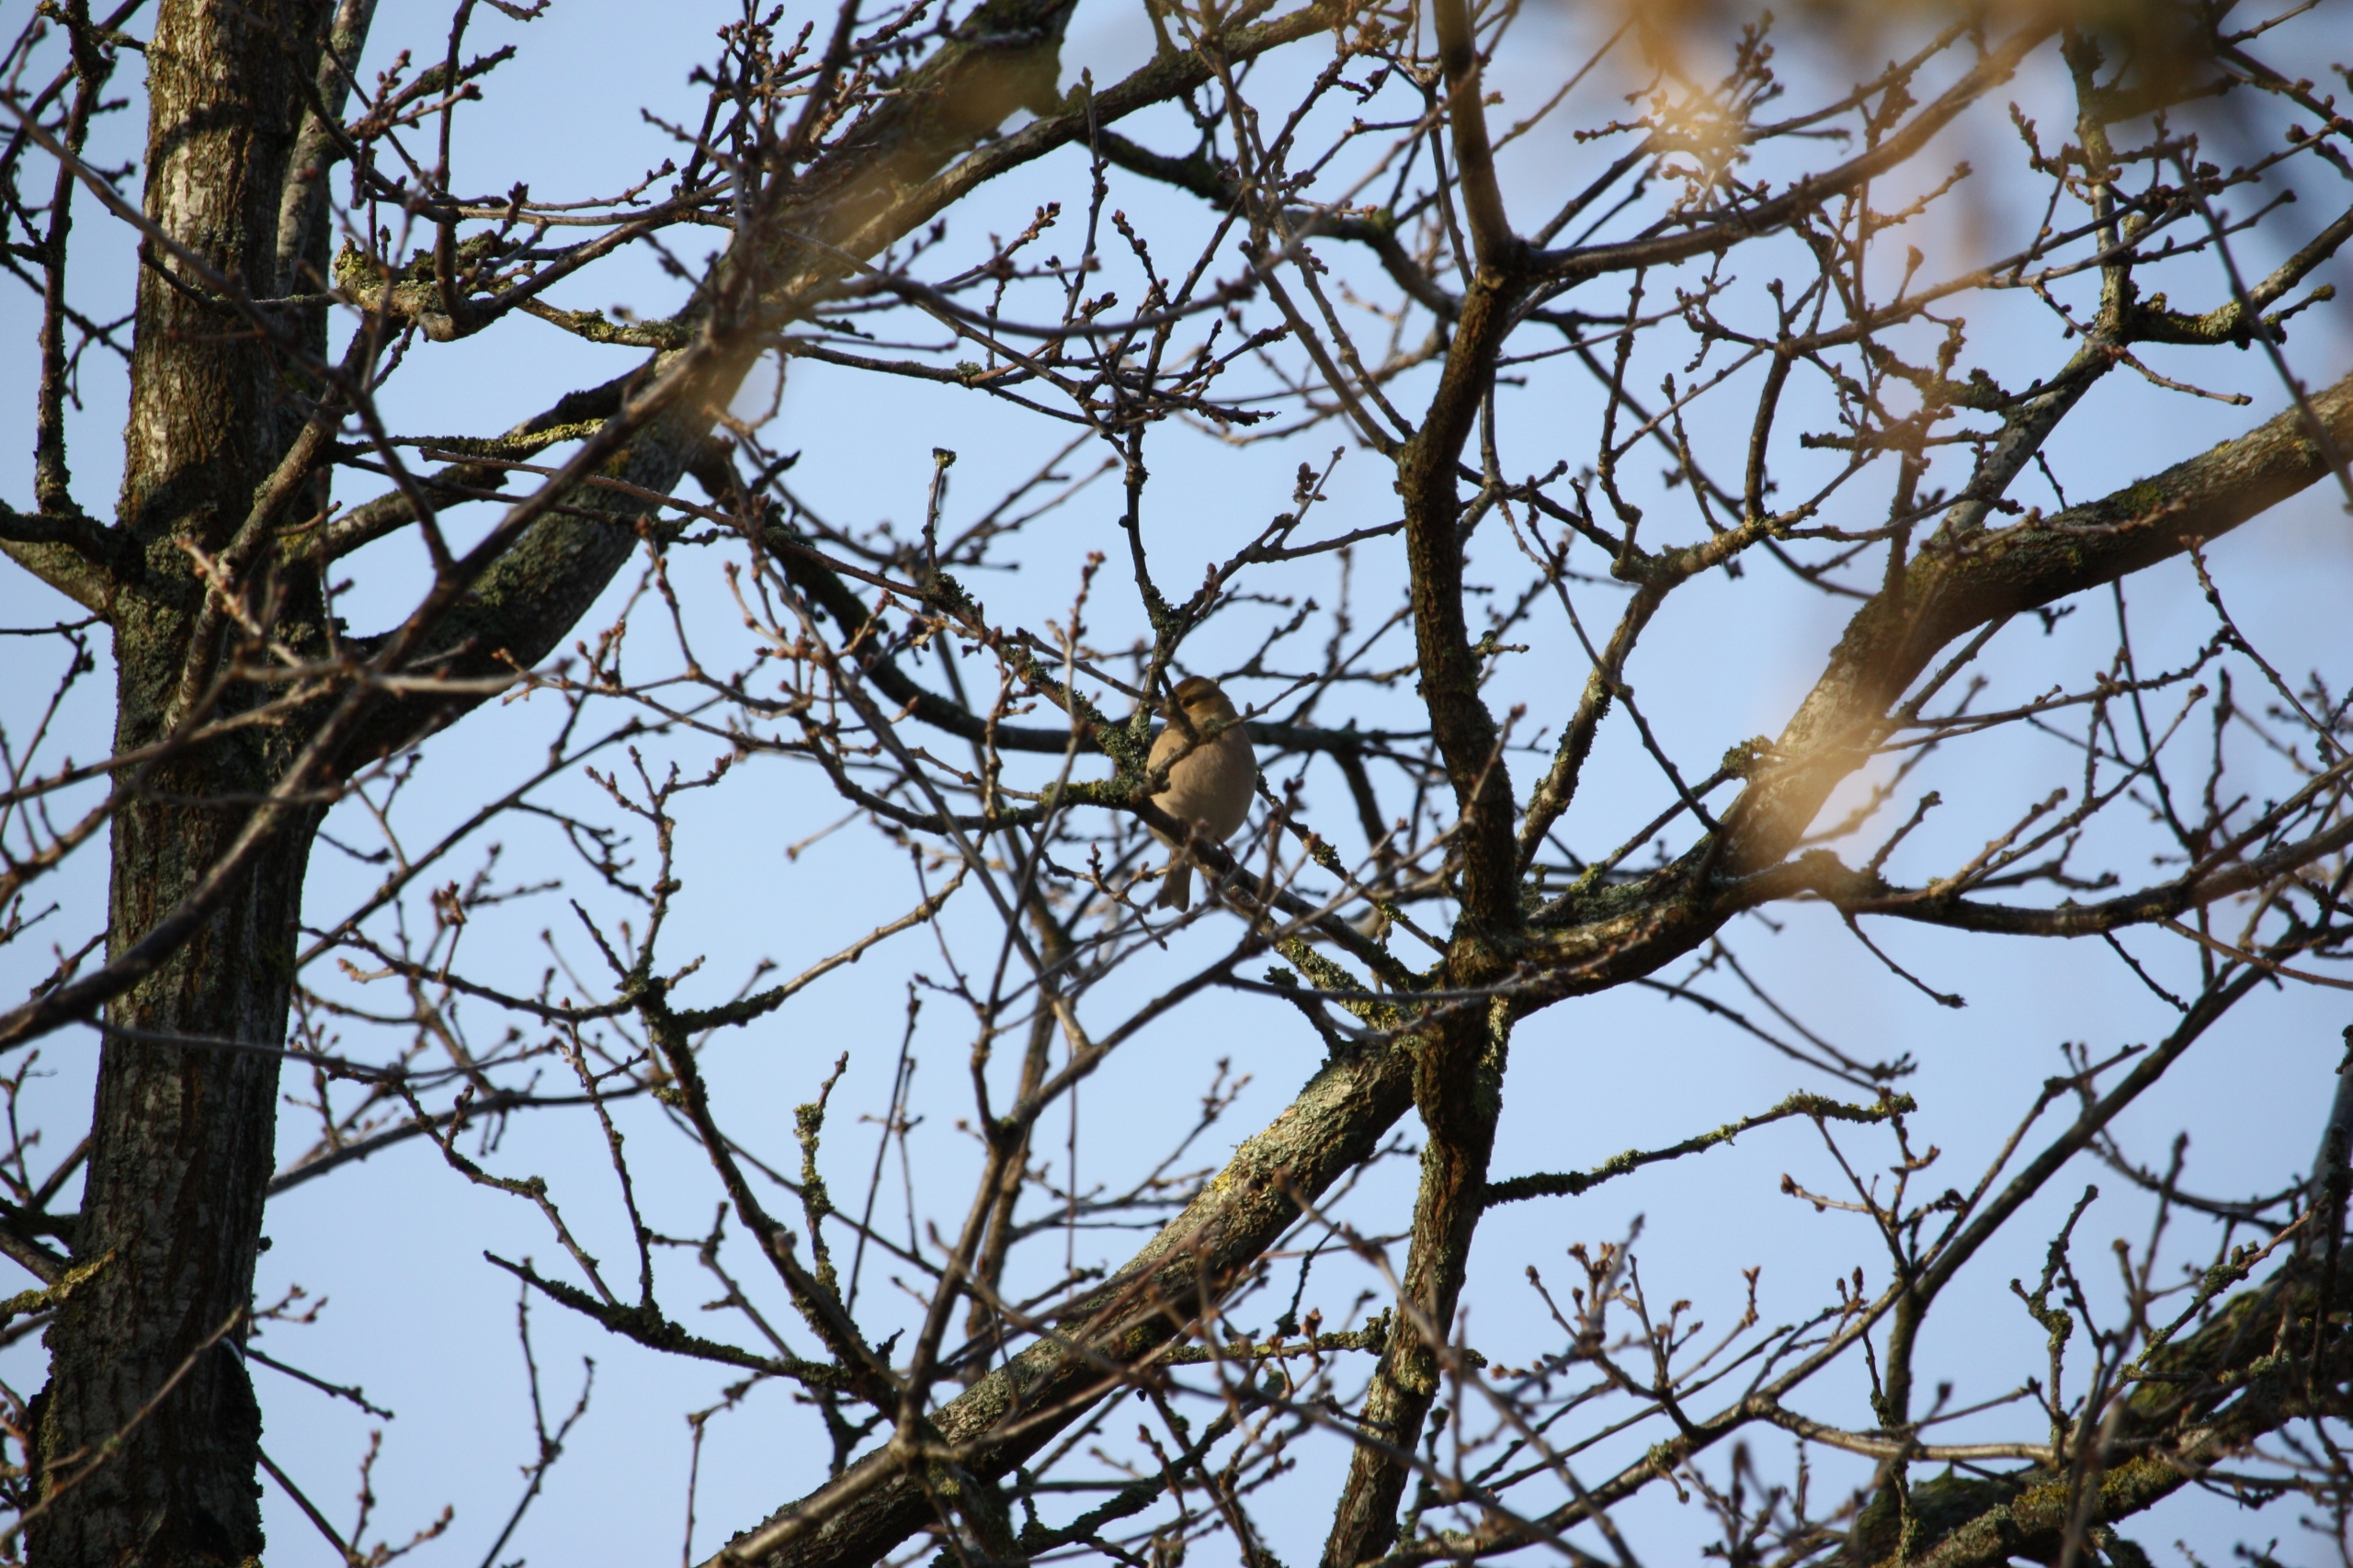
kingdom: Animalia
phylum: Chordata
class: Aves
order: Passeriformes
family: Fringillidae
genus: Fringilla
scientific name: Fringilla coelebs
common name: Bogfinke
